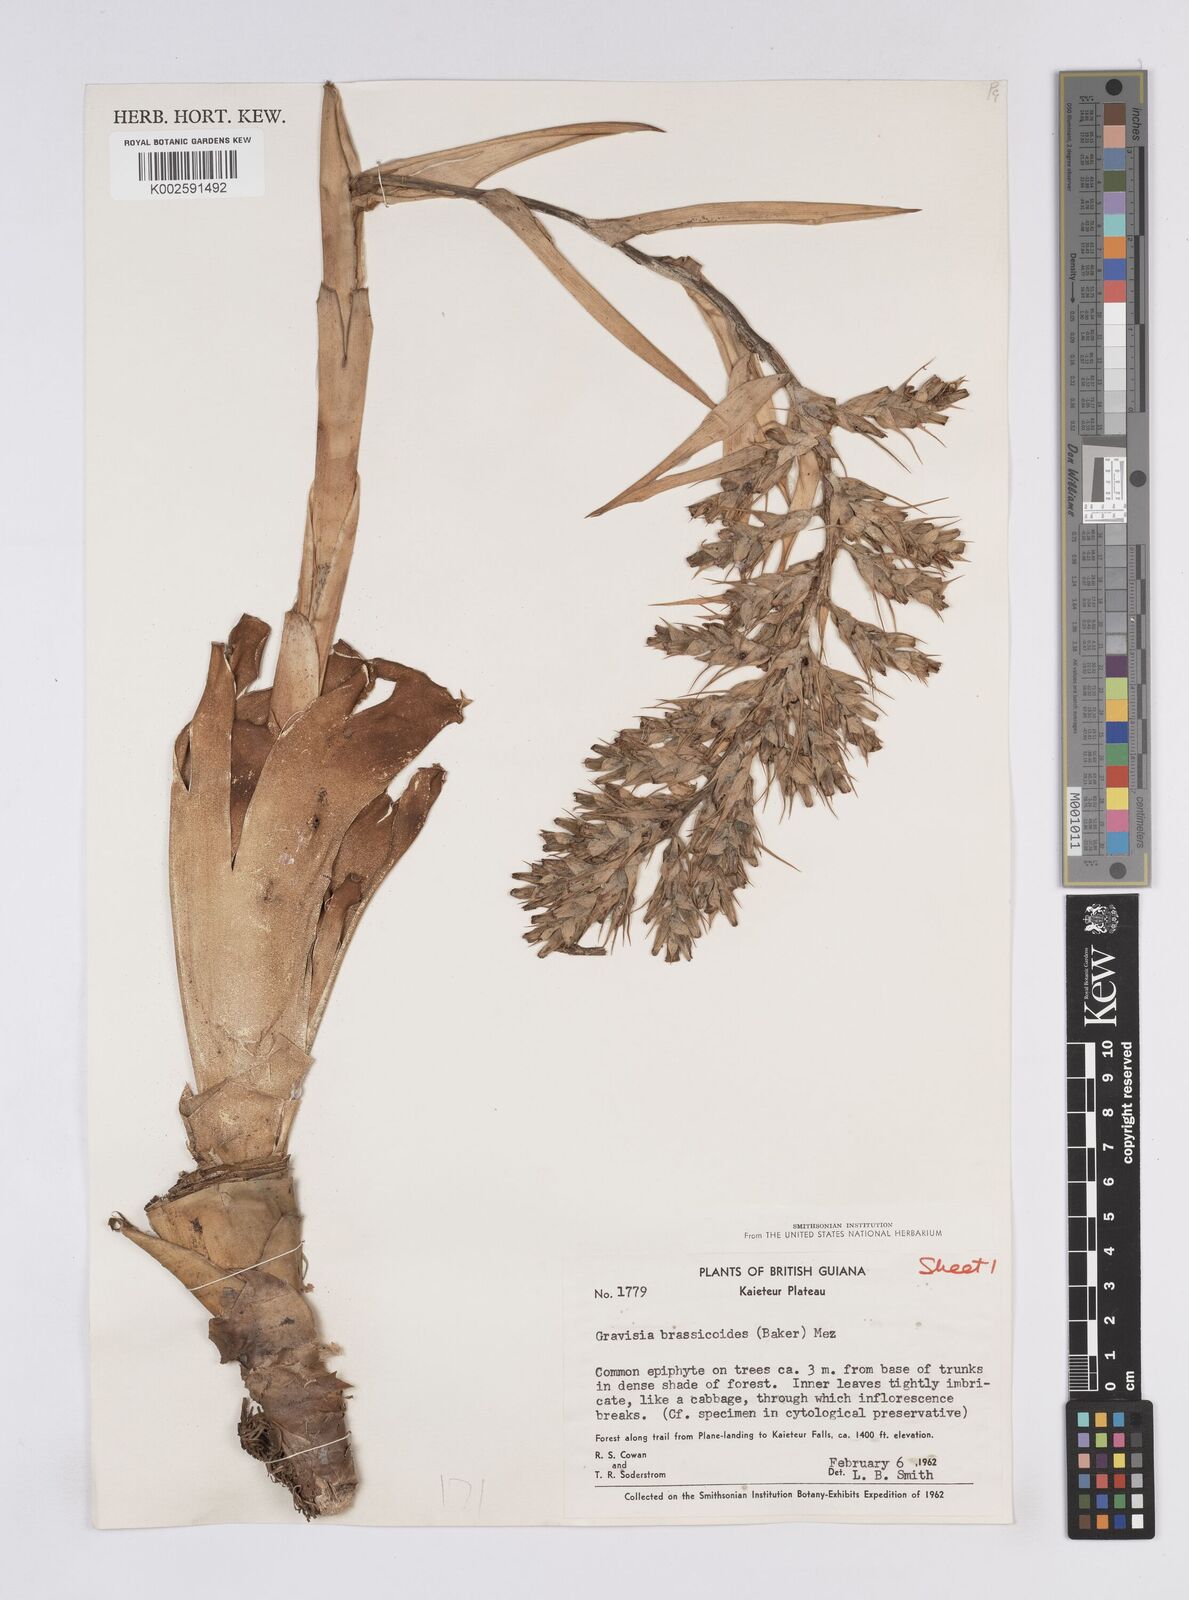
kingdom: Plantae
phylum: Tracheophyta
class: Liliopsida
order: Poales
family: Bromeliaceae
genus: Aechmea
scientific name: Aechmea brassicoides
